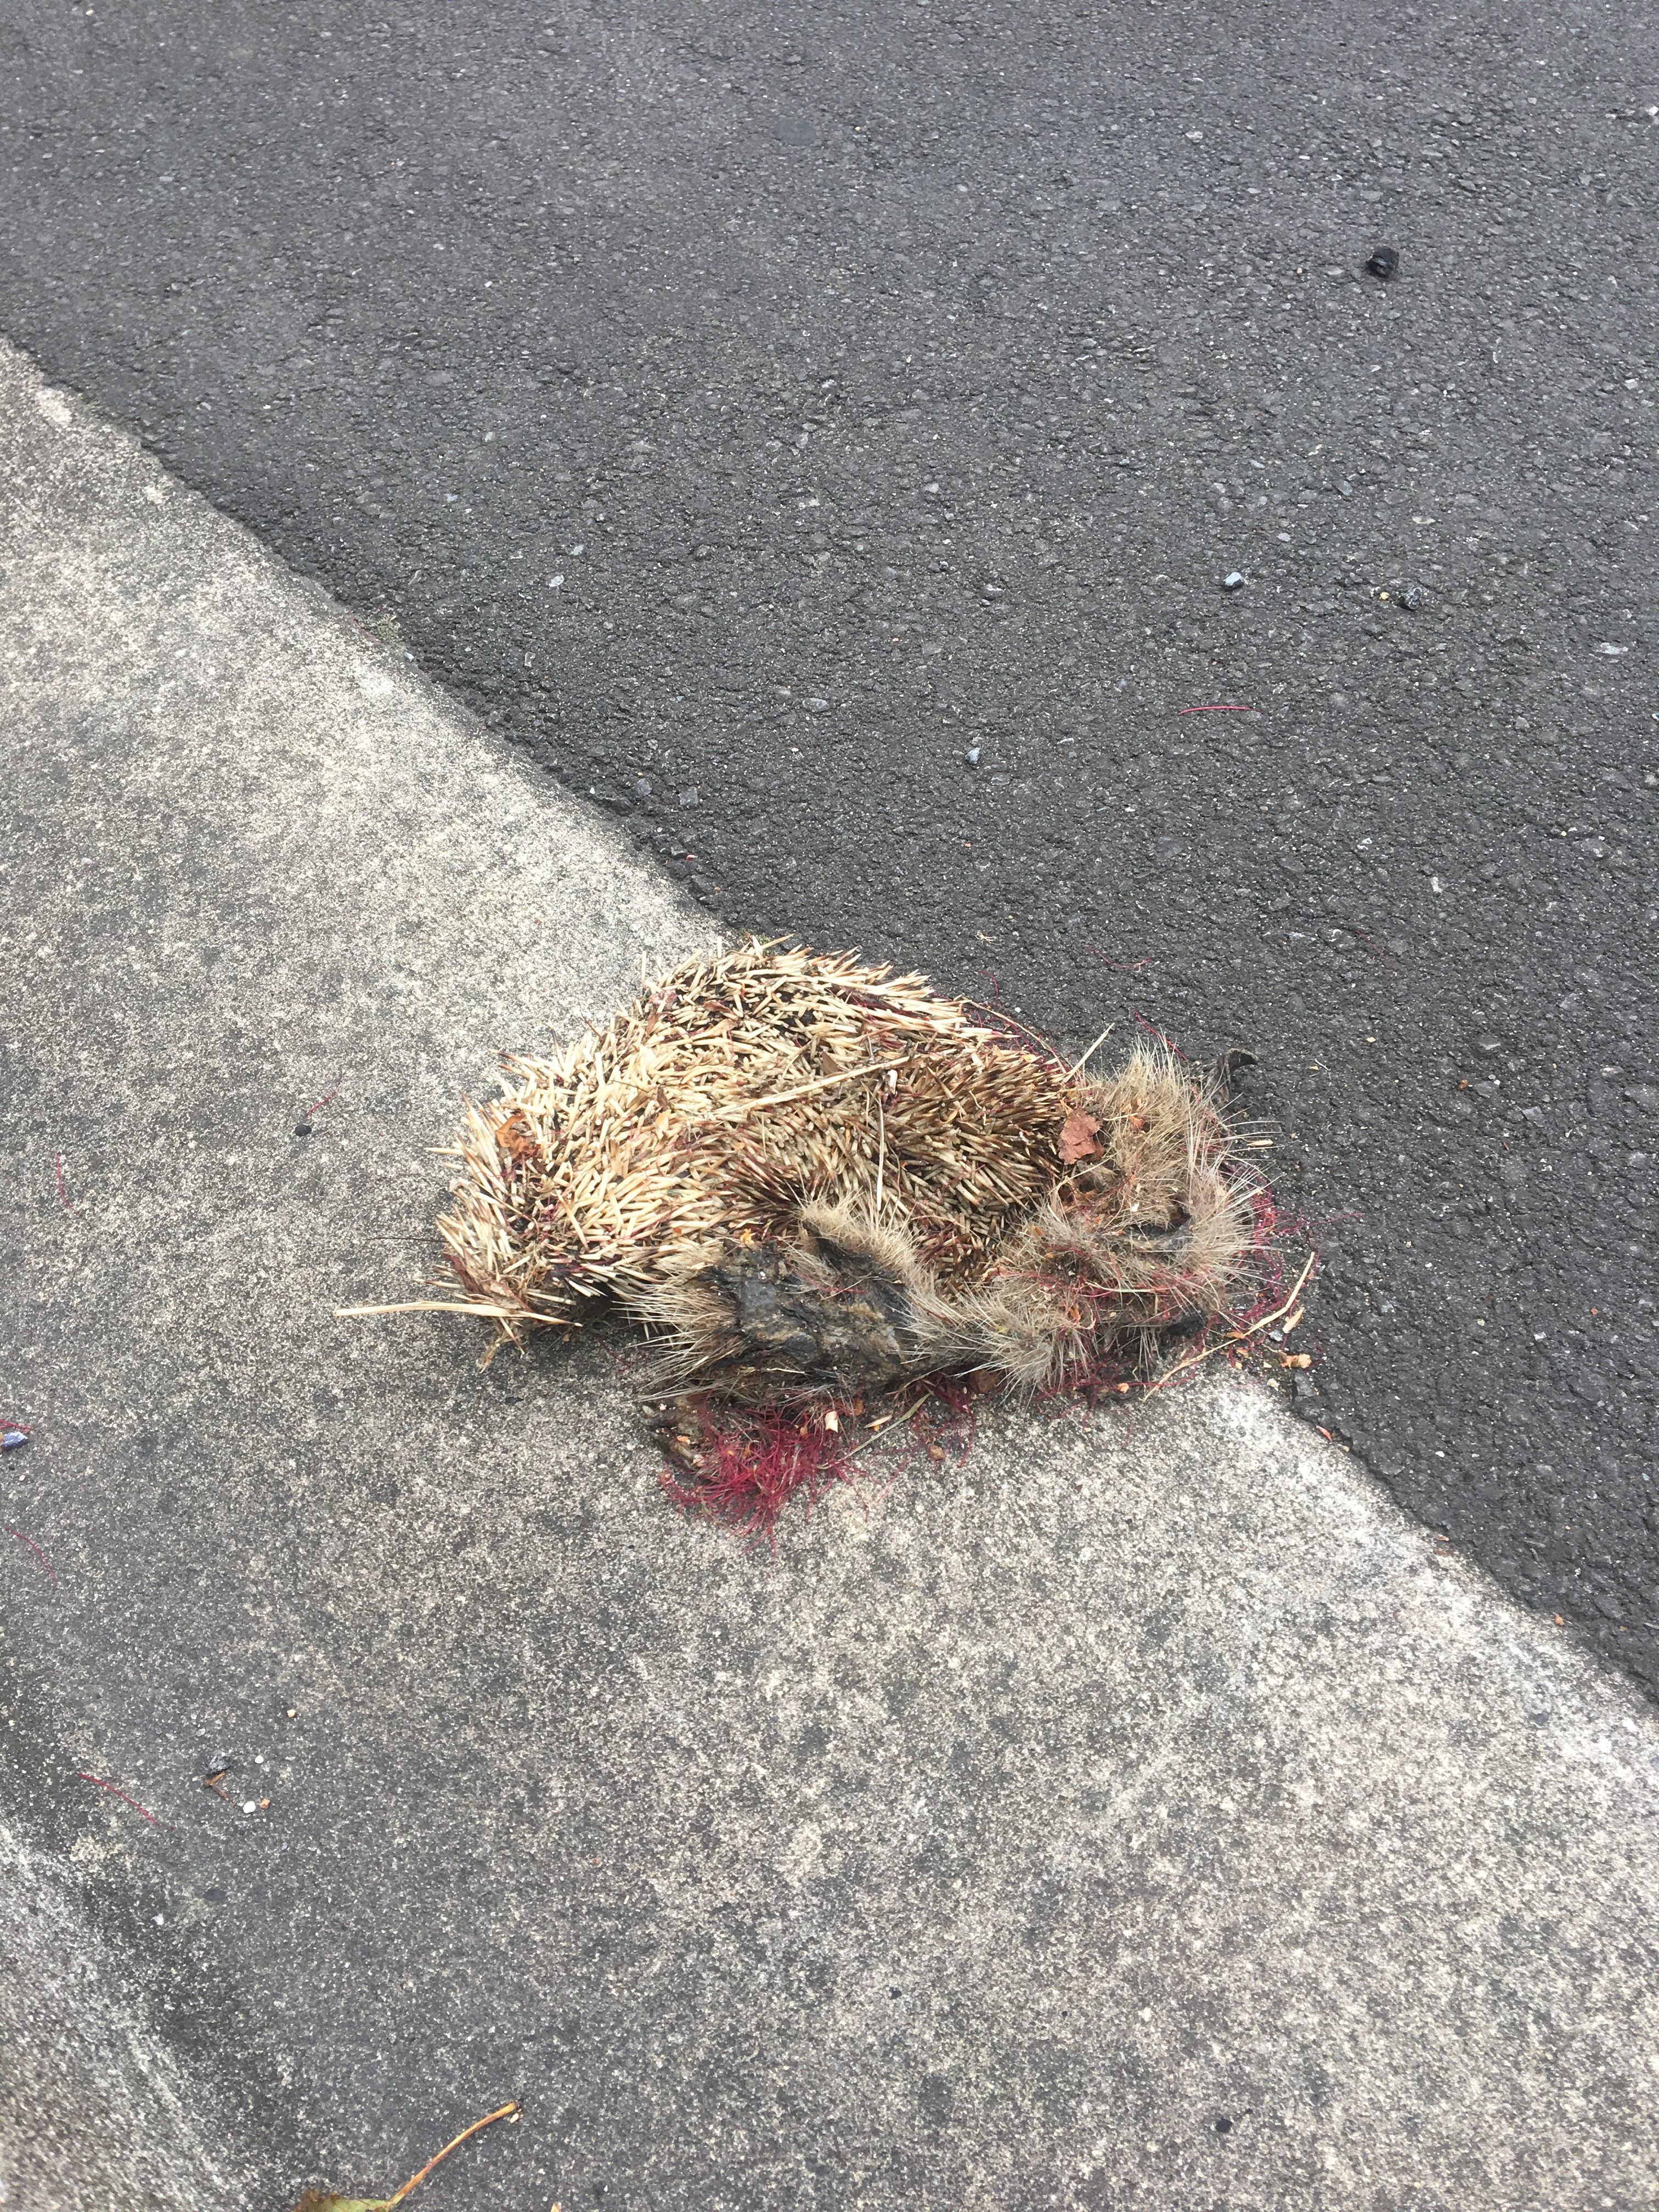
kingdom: Animalia
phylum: Chordata
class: Mammalia
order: Erinaceomorpha
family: Erinaceidae
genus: Erinaceus
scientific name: Erinaceus
